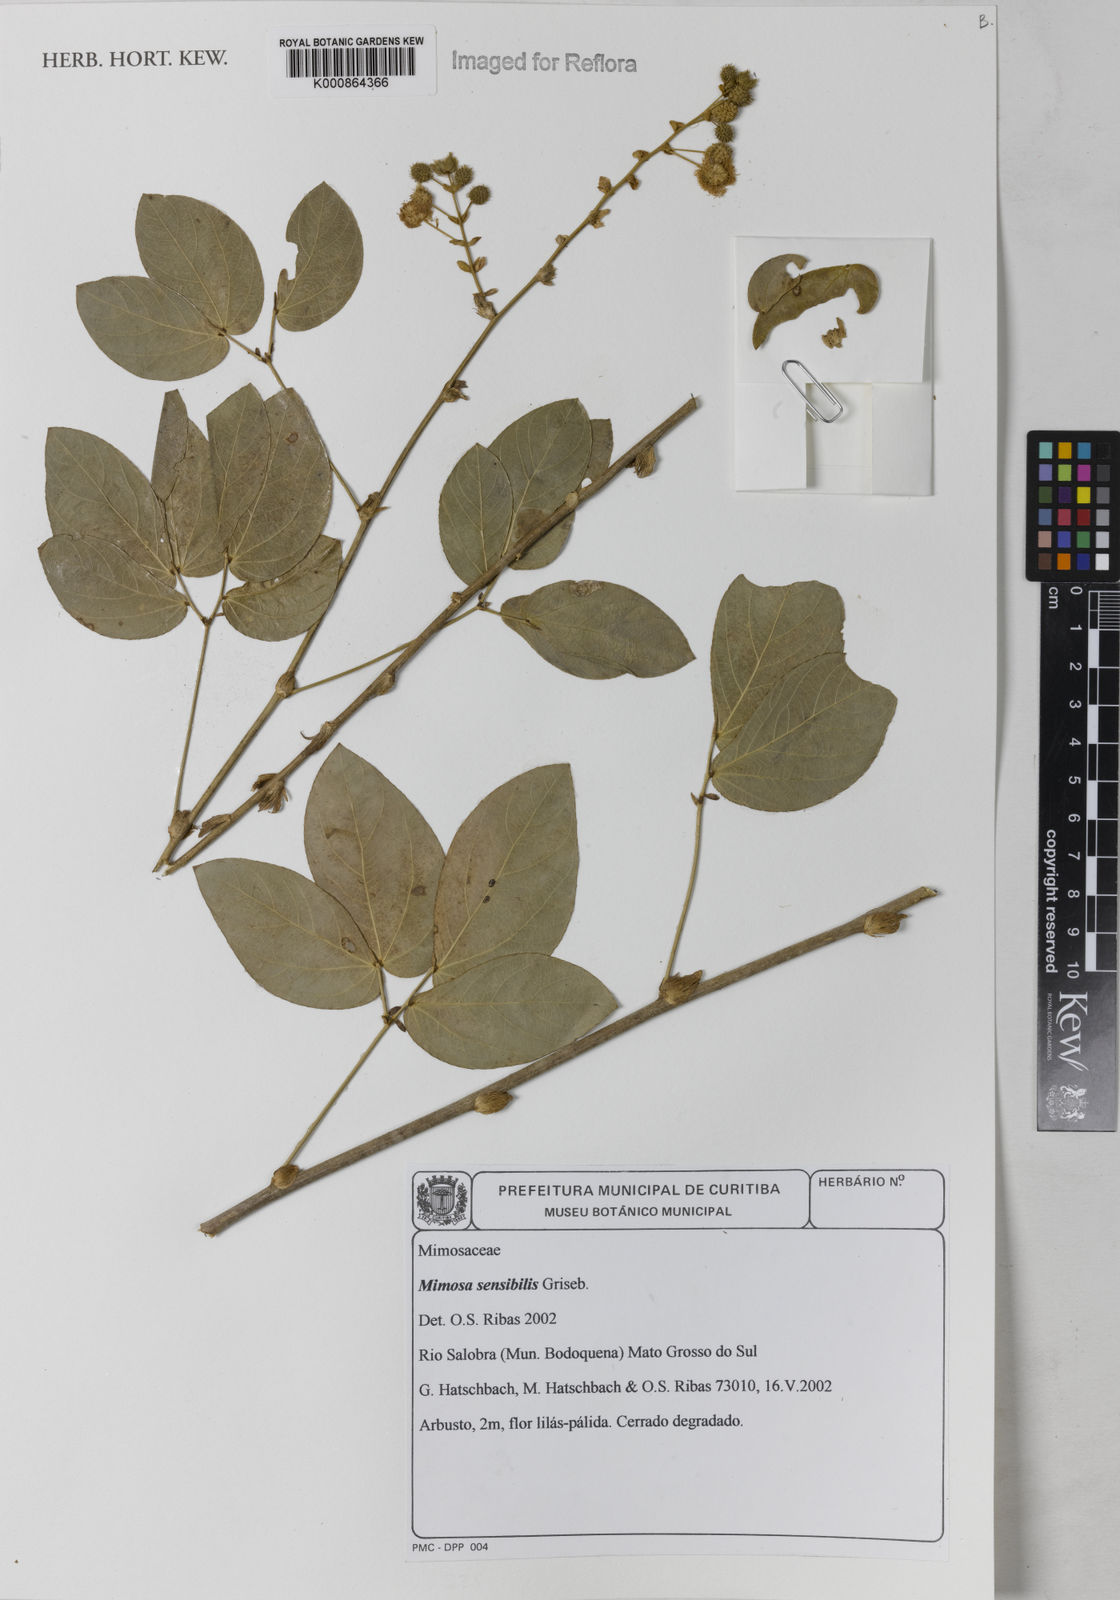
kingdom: Plantae
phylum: Tracheophyta
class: Magnoliopsida
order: Fabales
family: Fabaceae
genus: Mimosa
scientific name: Mimosa sensibilis
